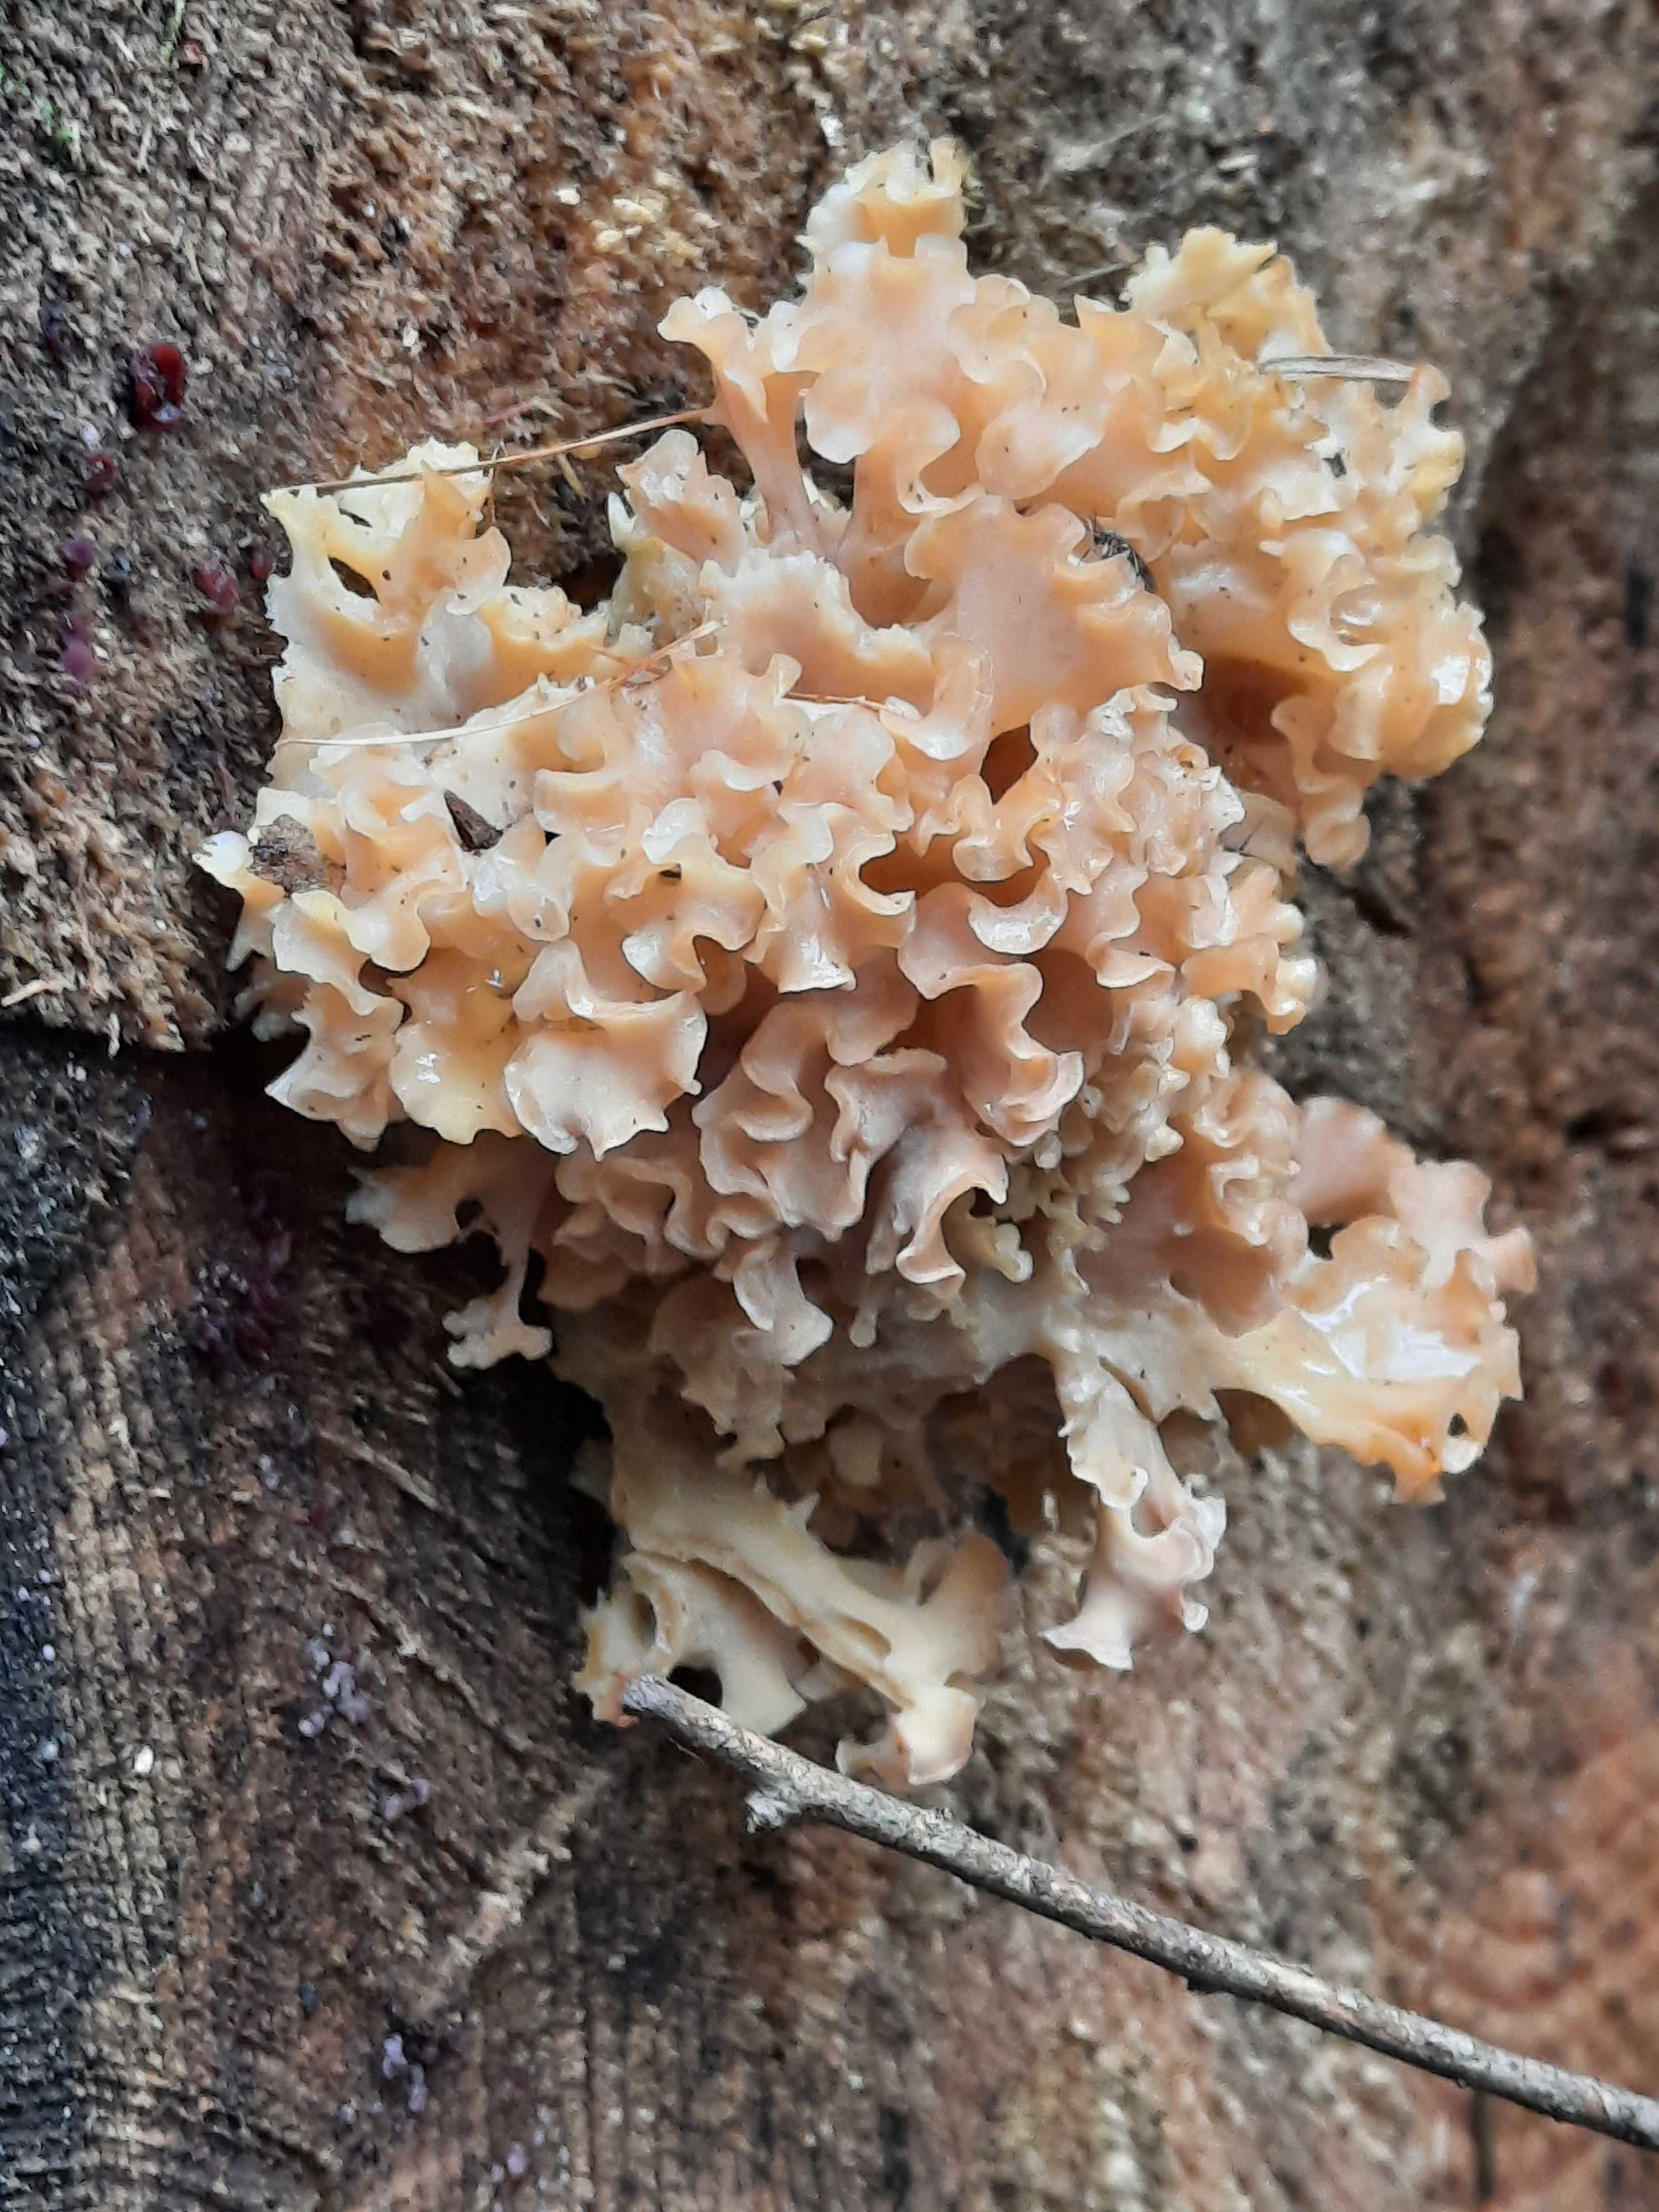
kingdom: Fungi
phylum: Basidiomycota
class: Agaricomycetes
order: Polyporales
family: Sparassidaceae
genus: Sparassis
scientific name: Sparassis crispa
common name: kruset blomkålssvamp
